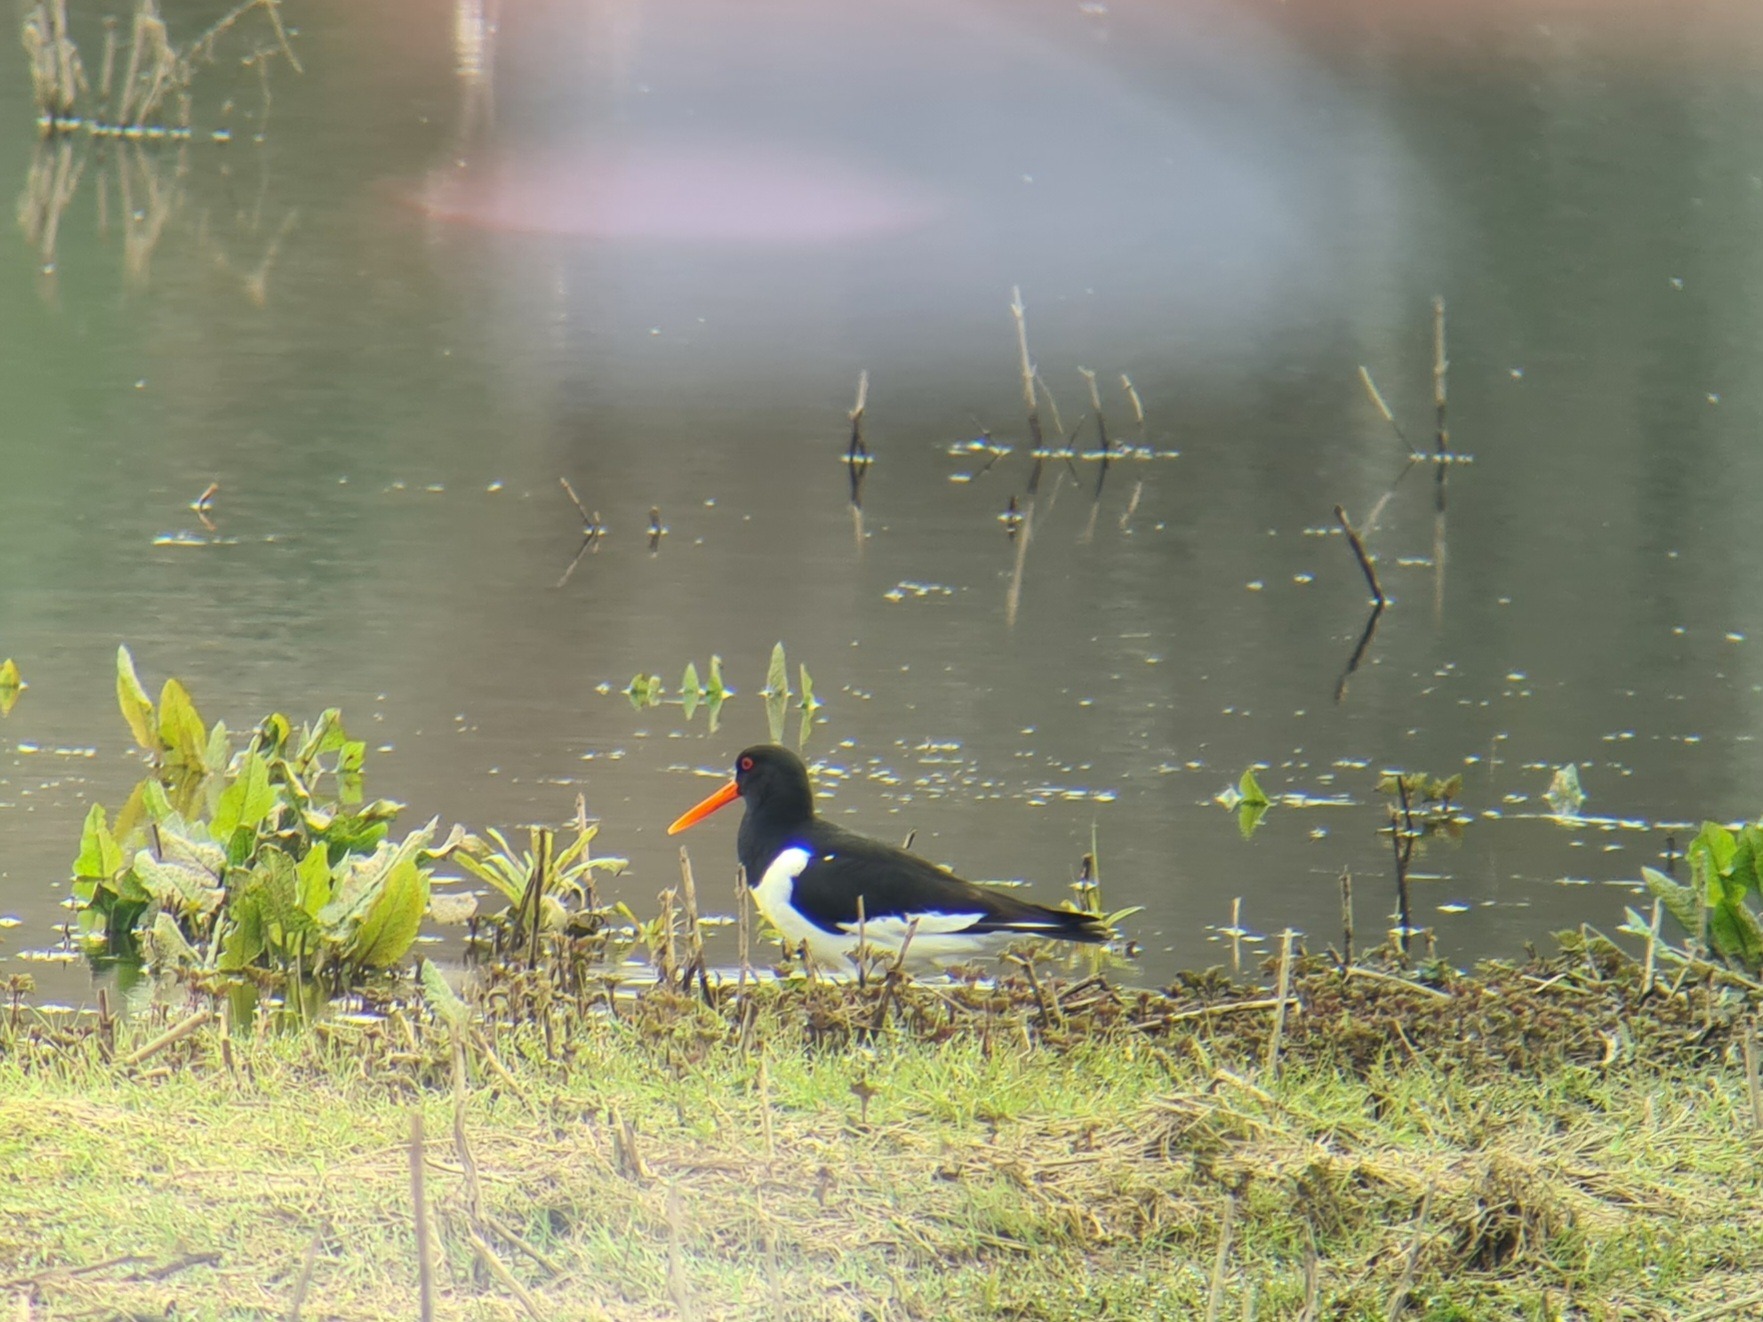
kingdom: Animalia
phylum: Chordata
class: Aves
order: Charadriiformes
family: Haematopodidae
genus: Haematopus
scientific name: Haematopus ostralegus
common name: Strandskade
